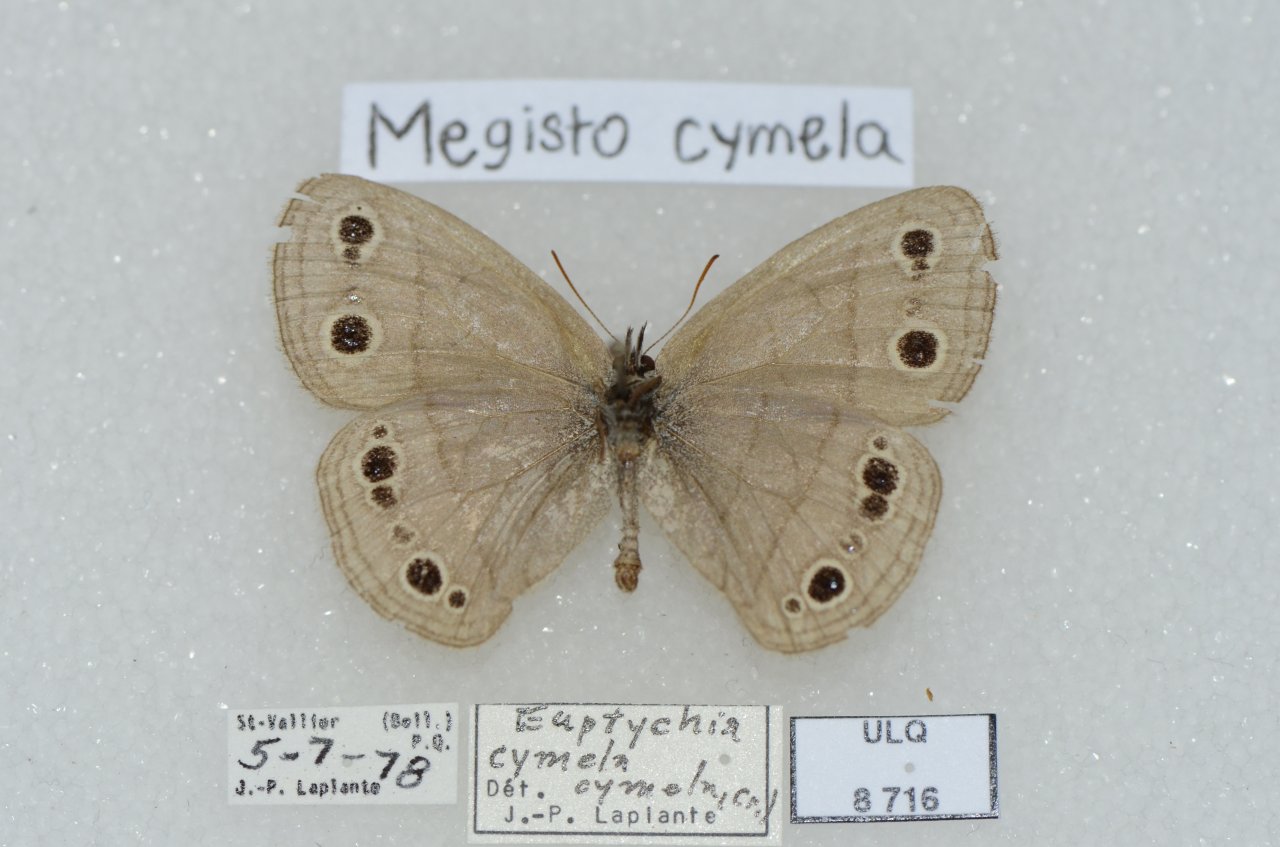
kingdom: Animalia
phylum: Arthropoda
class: Insecta
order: Lepidoptera
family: Nymphalidae
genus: Euptychia
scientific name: Euptychia cymela
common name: Little Wood Satyr
